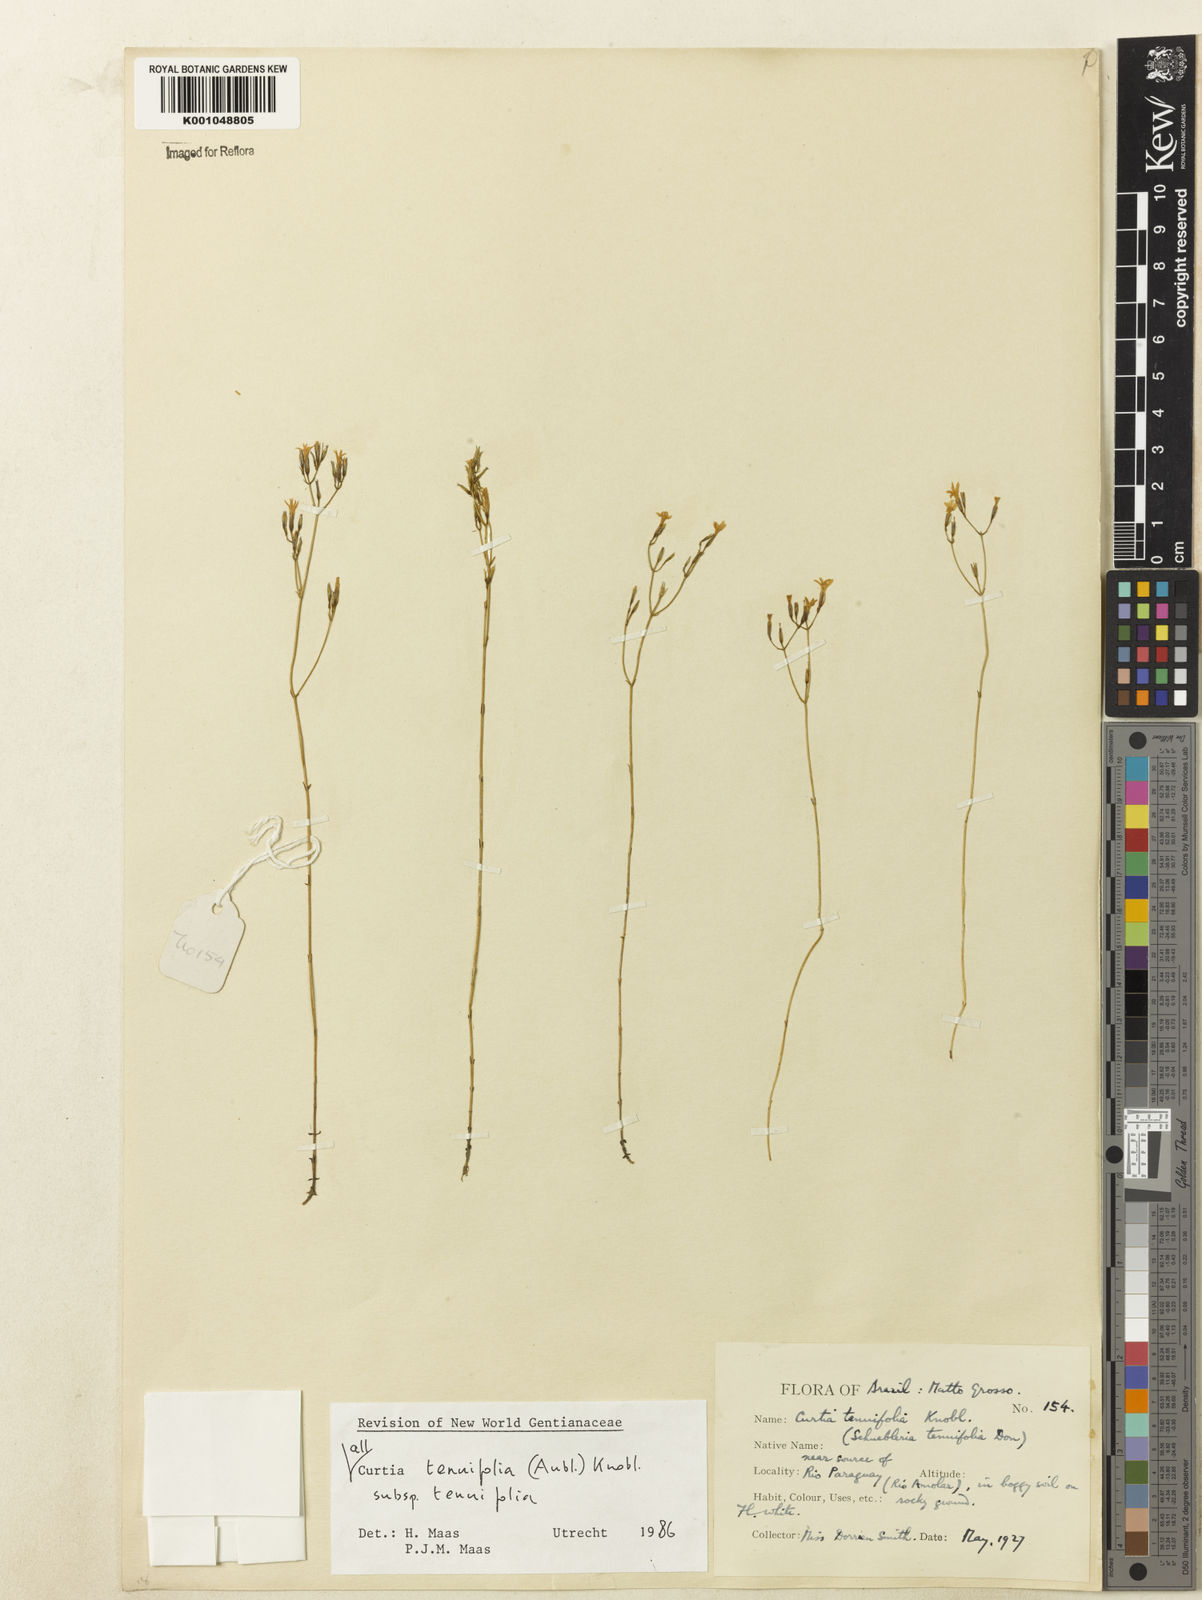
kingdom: Plantae
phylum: Tracheophyta
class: Magnoliopsida
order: Gentianales
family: Gentianaceae
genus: Curtia
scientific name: Curtia tenuifolia
